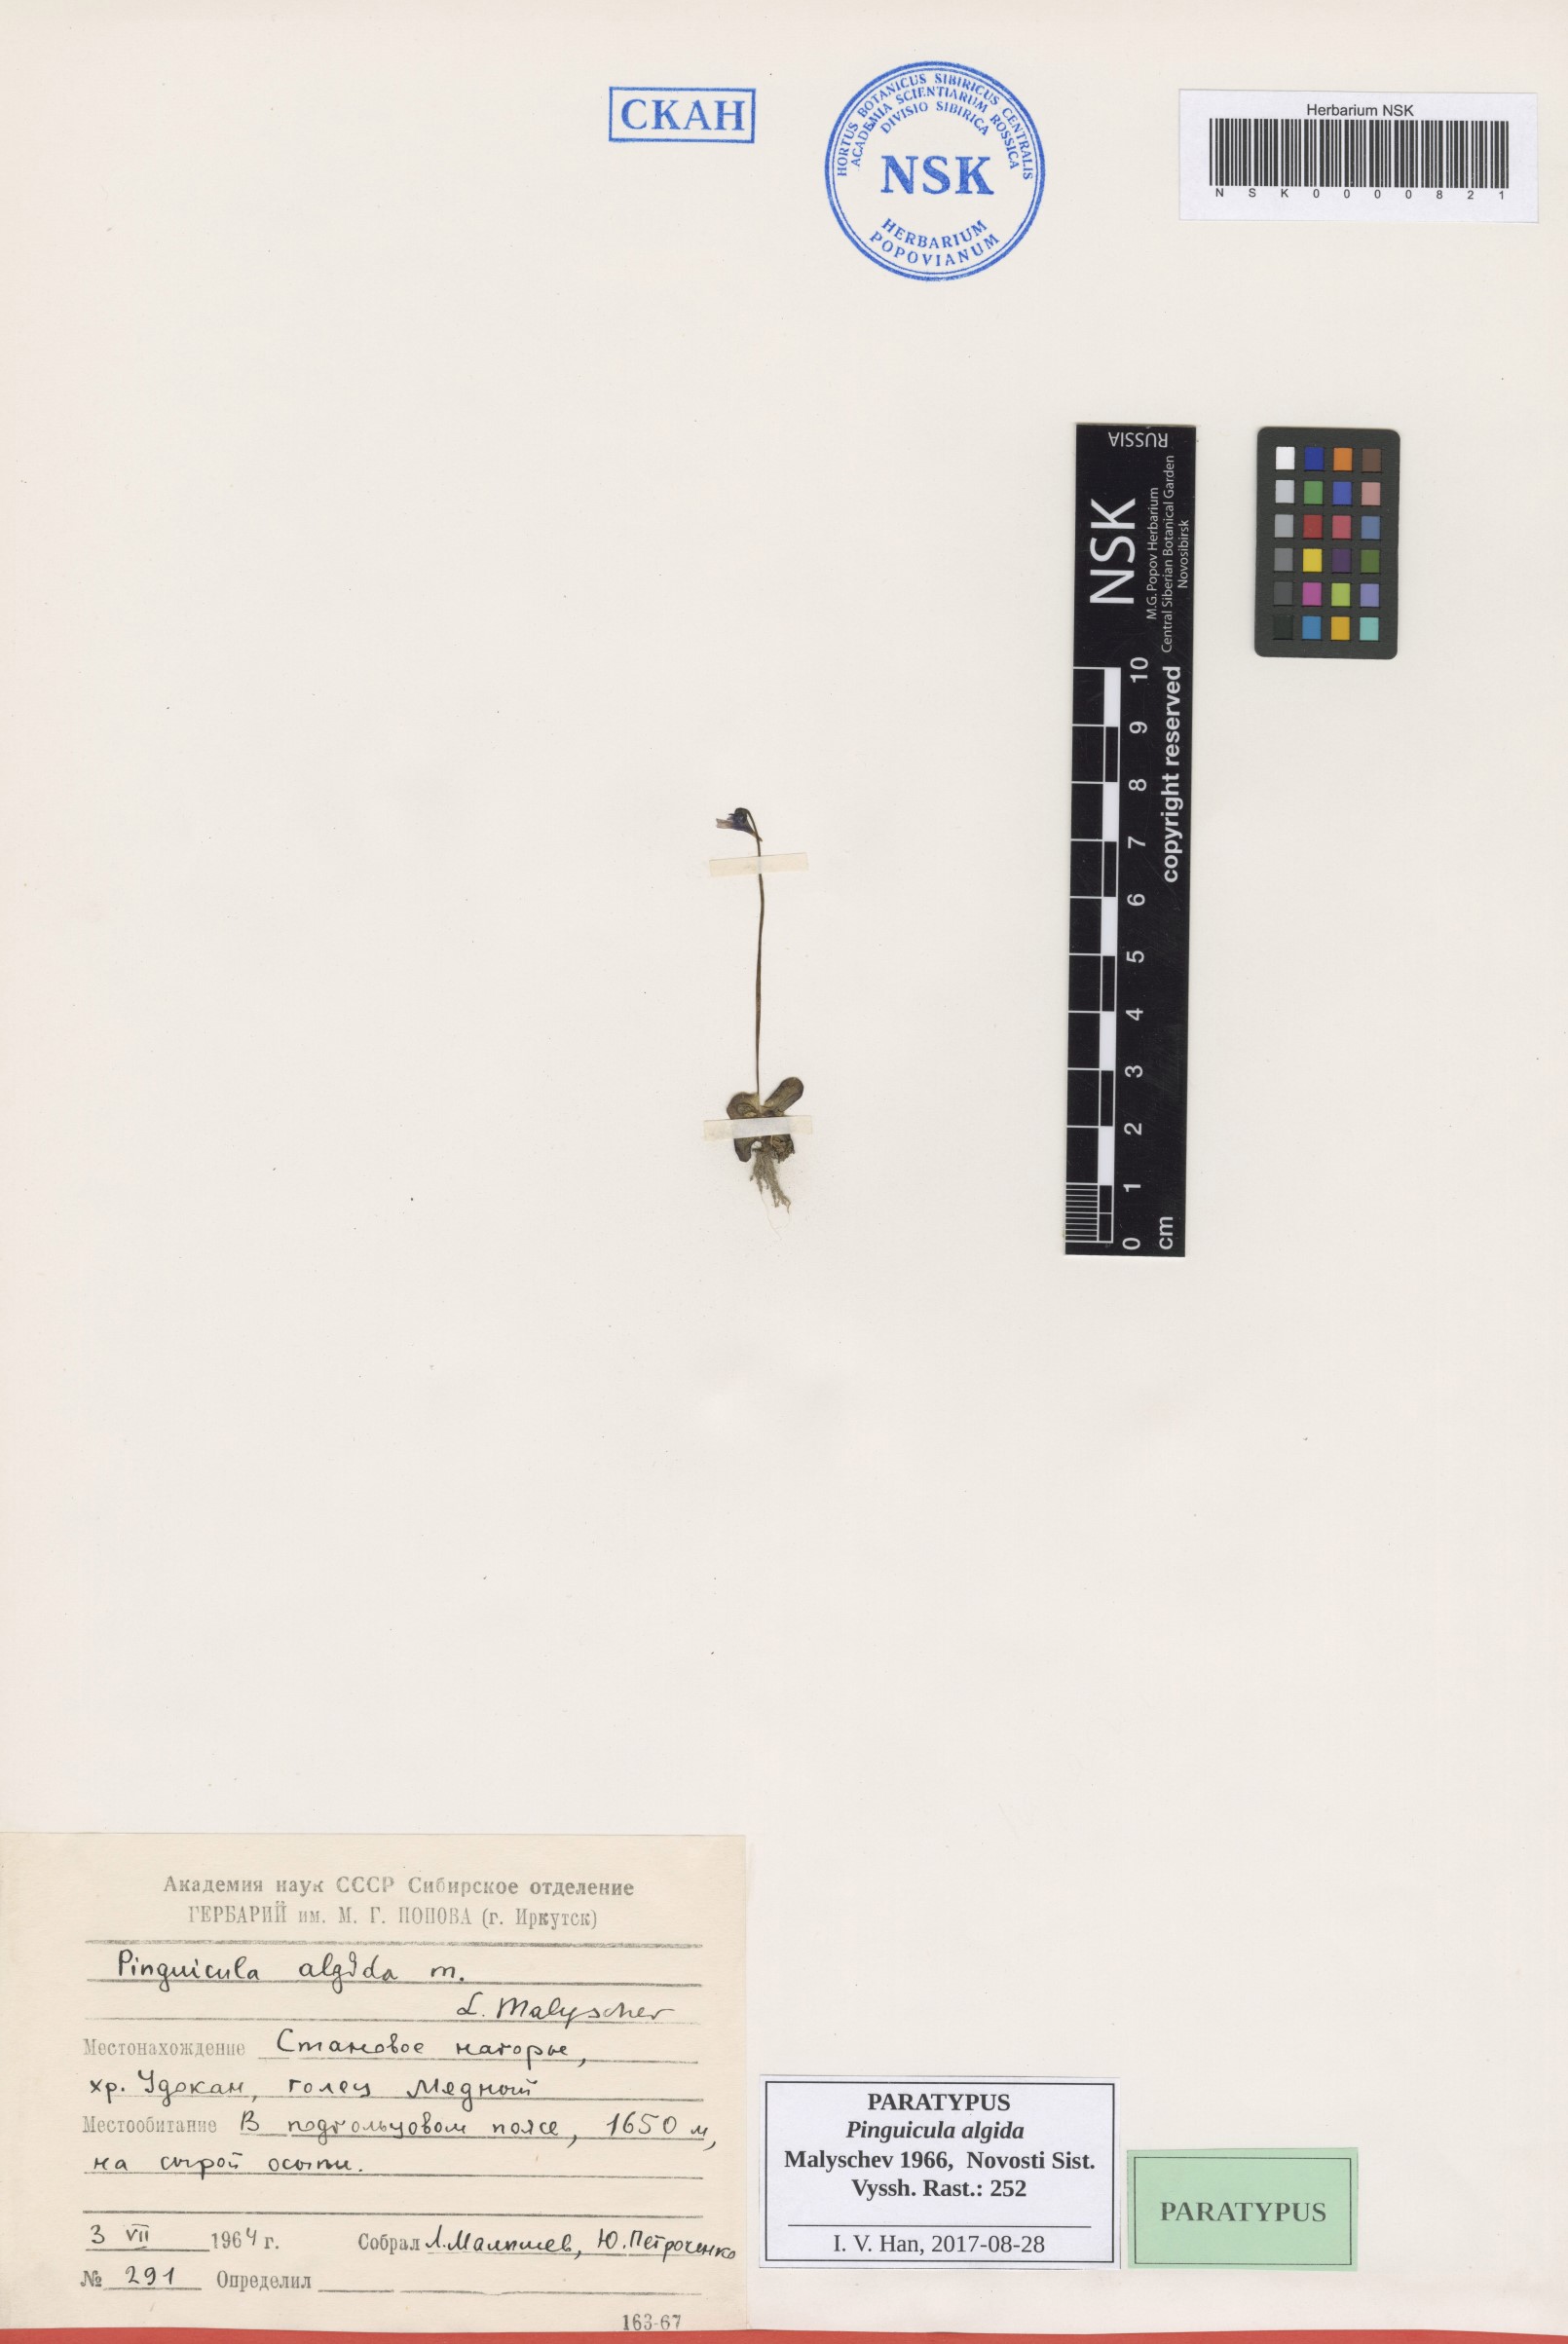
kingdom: Plantae
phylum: Tracheophyta
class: Magnoliopsida
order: Lamiales
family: Lentibulariaceae
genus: Pinguicula
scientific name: Pinguicula algida
